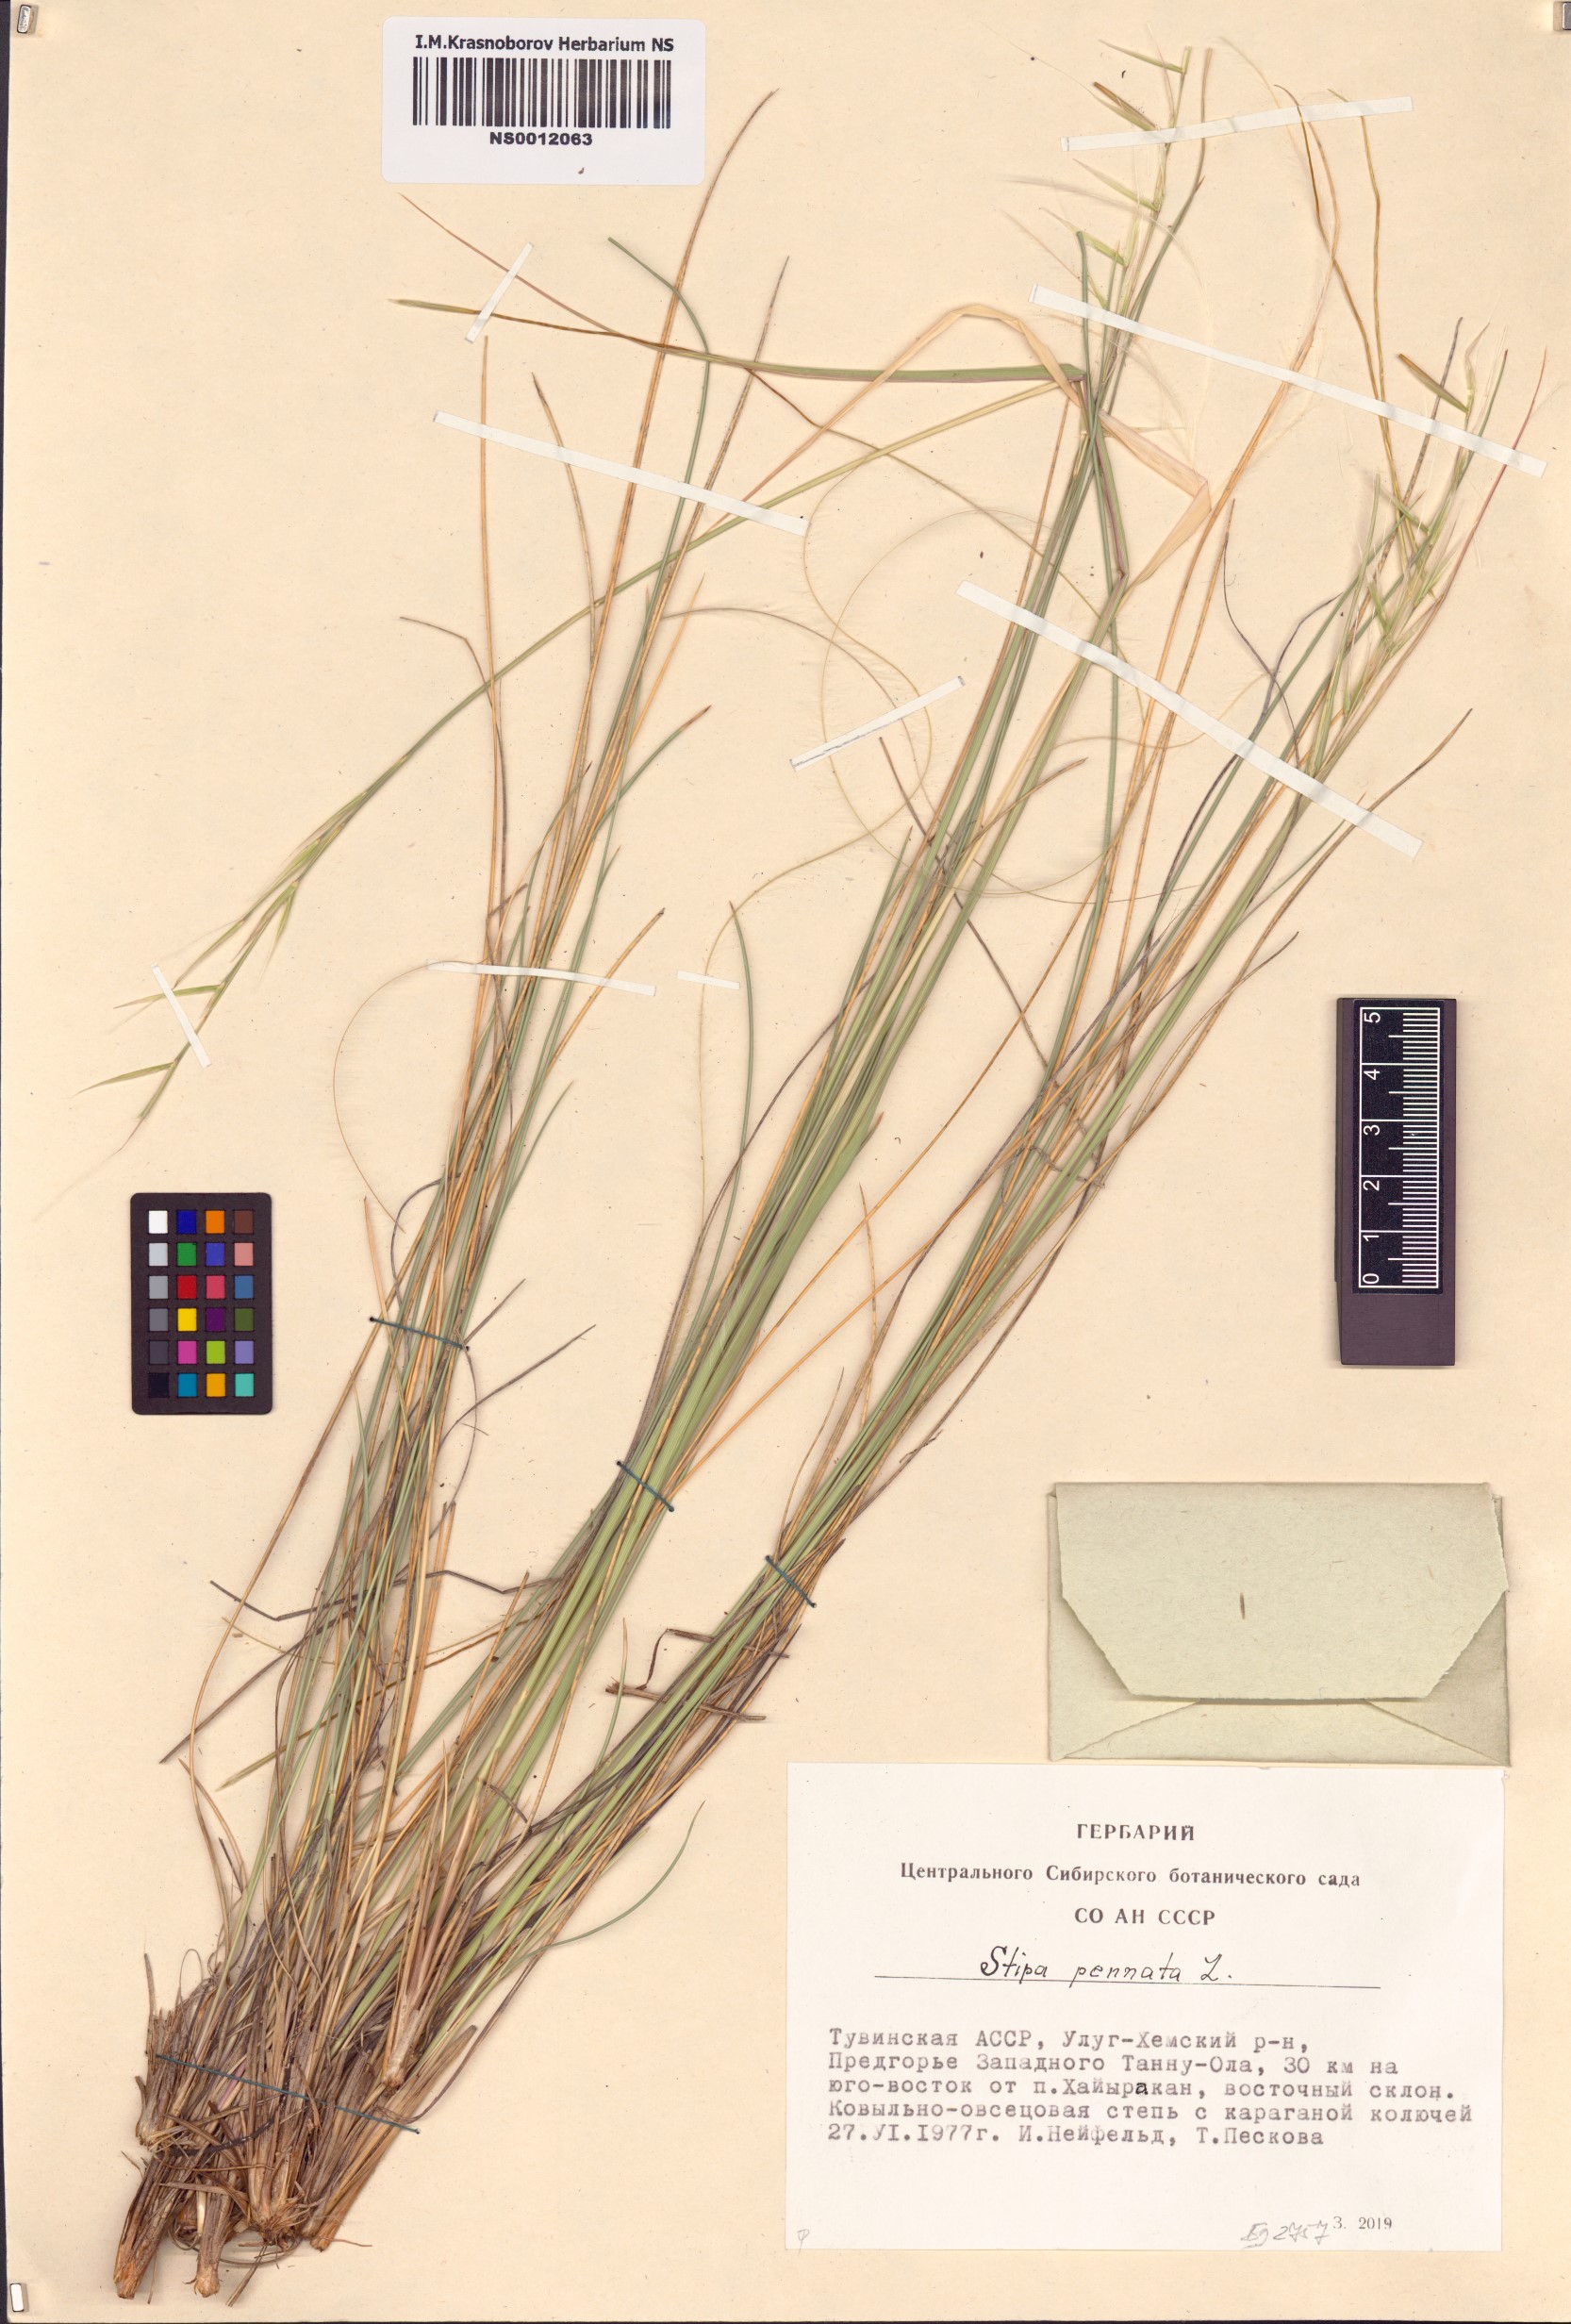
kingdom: Plantae
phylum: Tracheophyta
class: Liliopsida
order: Poales
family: Poaceae
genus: Stipa
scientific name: Stipa pennata
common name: European feather grass
